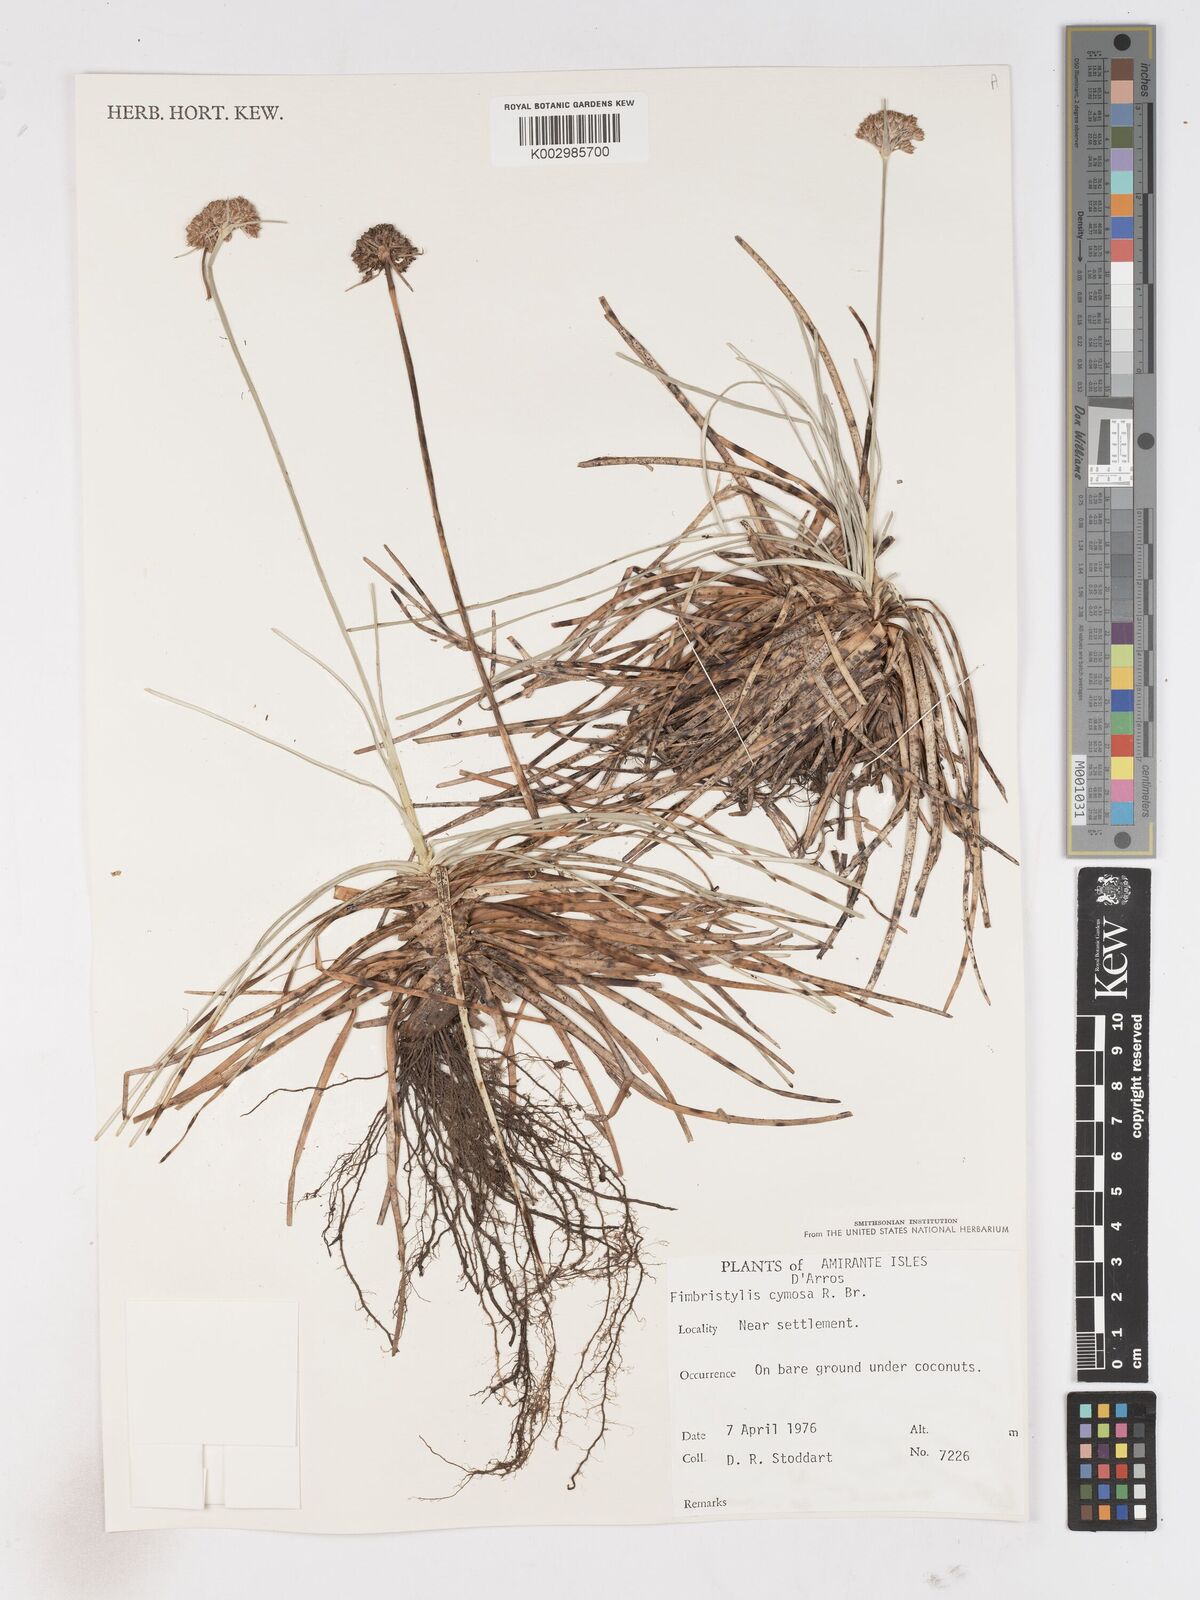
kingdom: Plantae
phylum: Tracheophyta
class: Liliopsida
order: Poales
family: Cyperaceae
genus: Fimbristylis
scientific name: Fimbristylis cymosa
